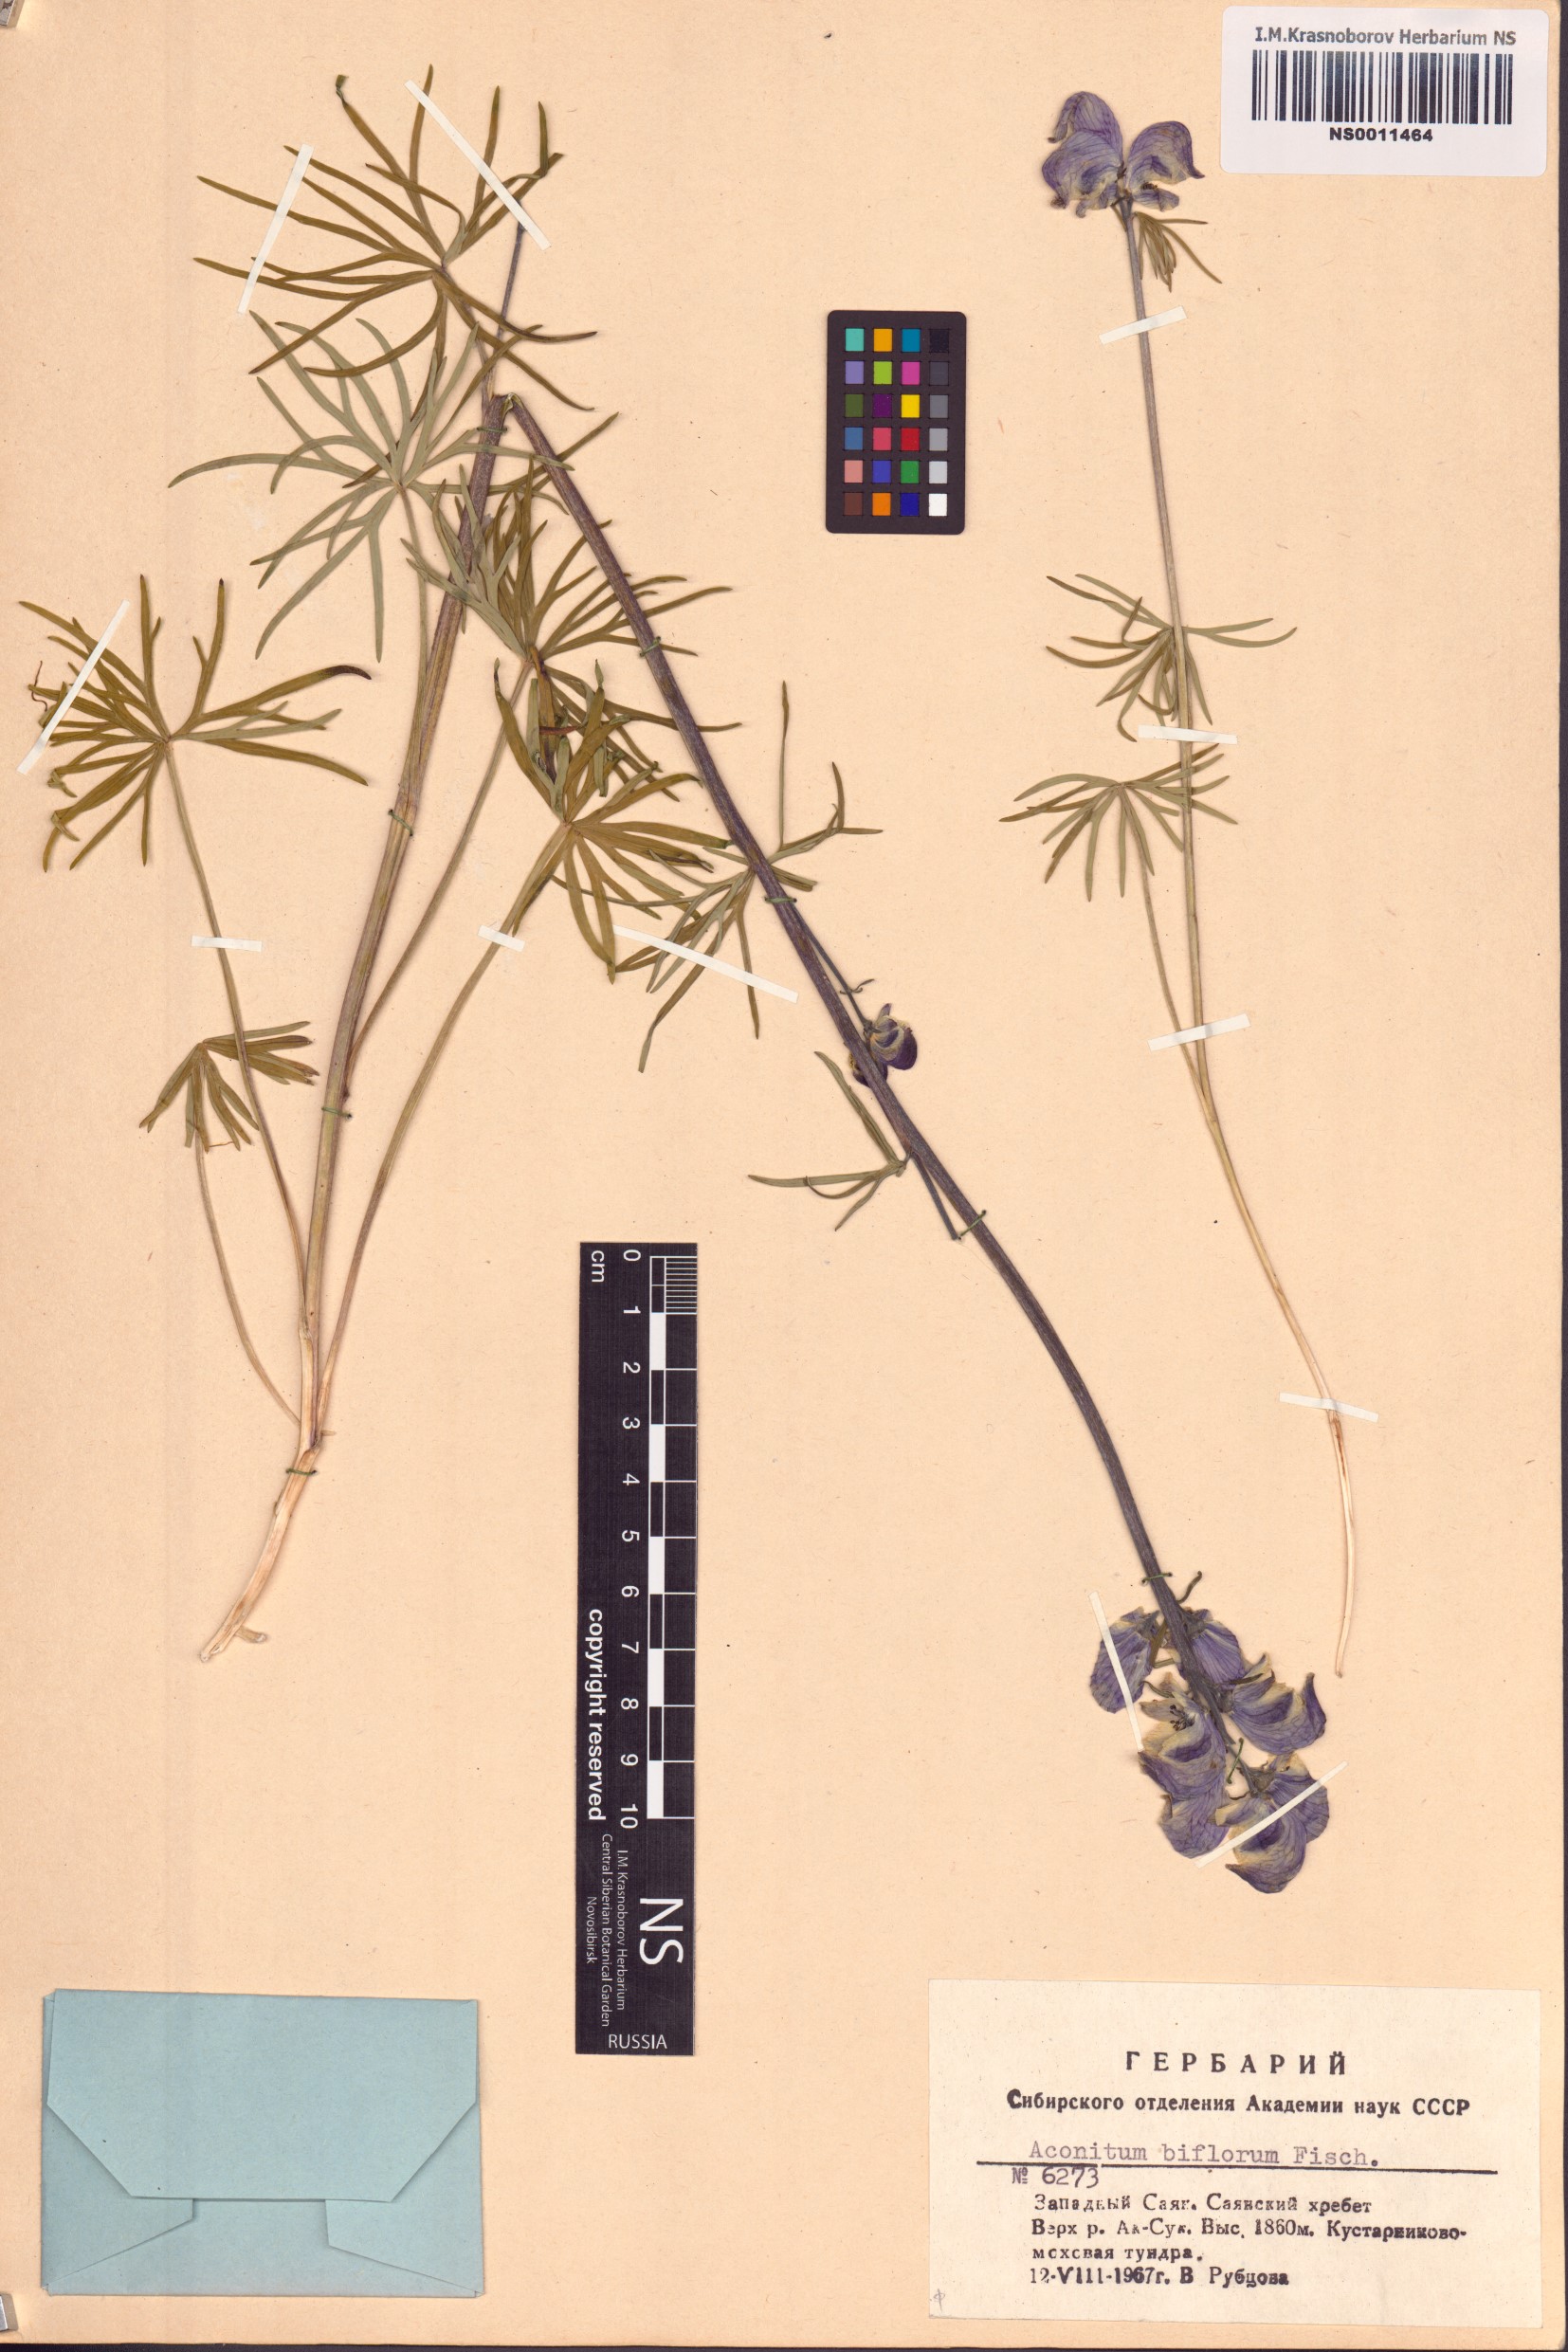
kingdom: Plantae
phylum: Tracheophyta
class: Magnoliopsida
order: Ranunculales
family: Ranunculaceae
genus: Aconitum
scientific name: Aconitum biflorum
